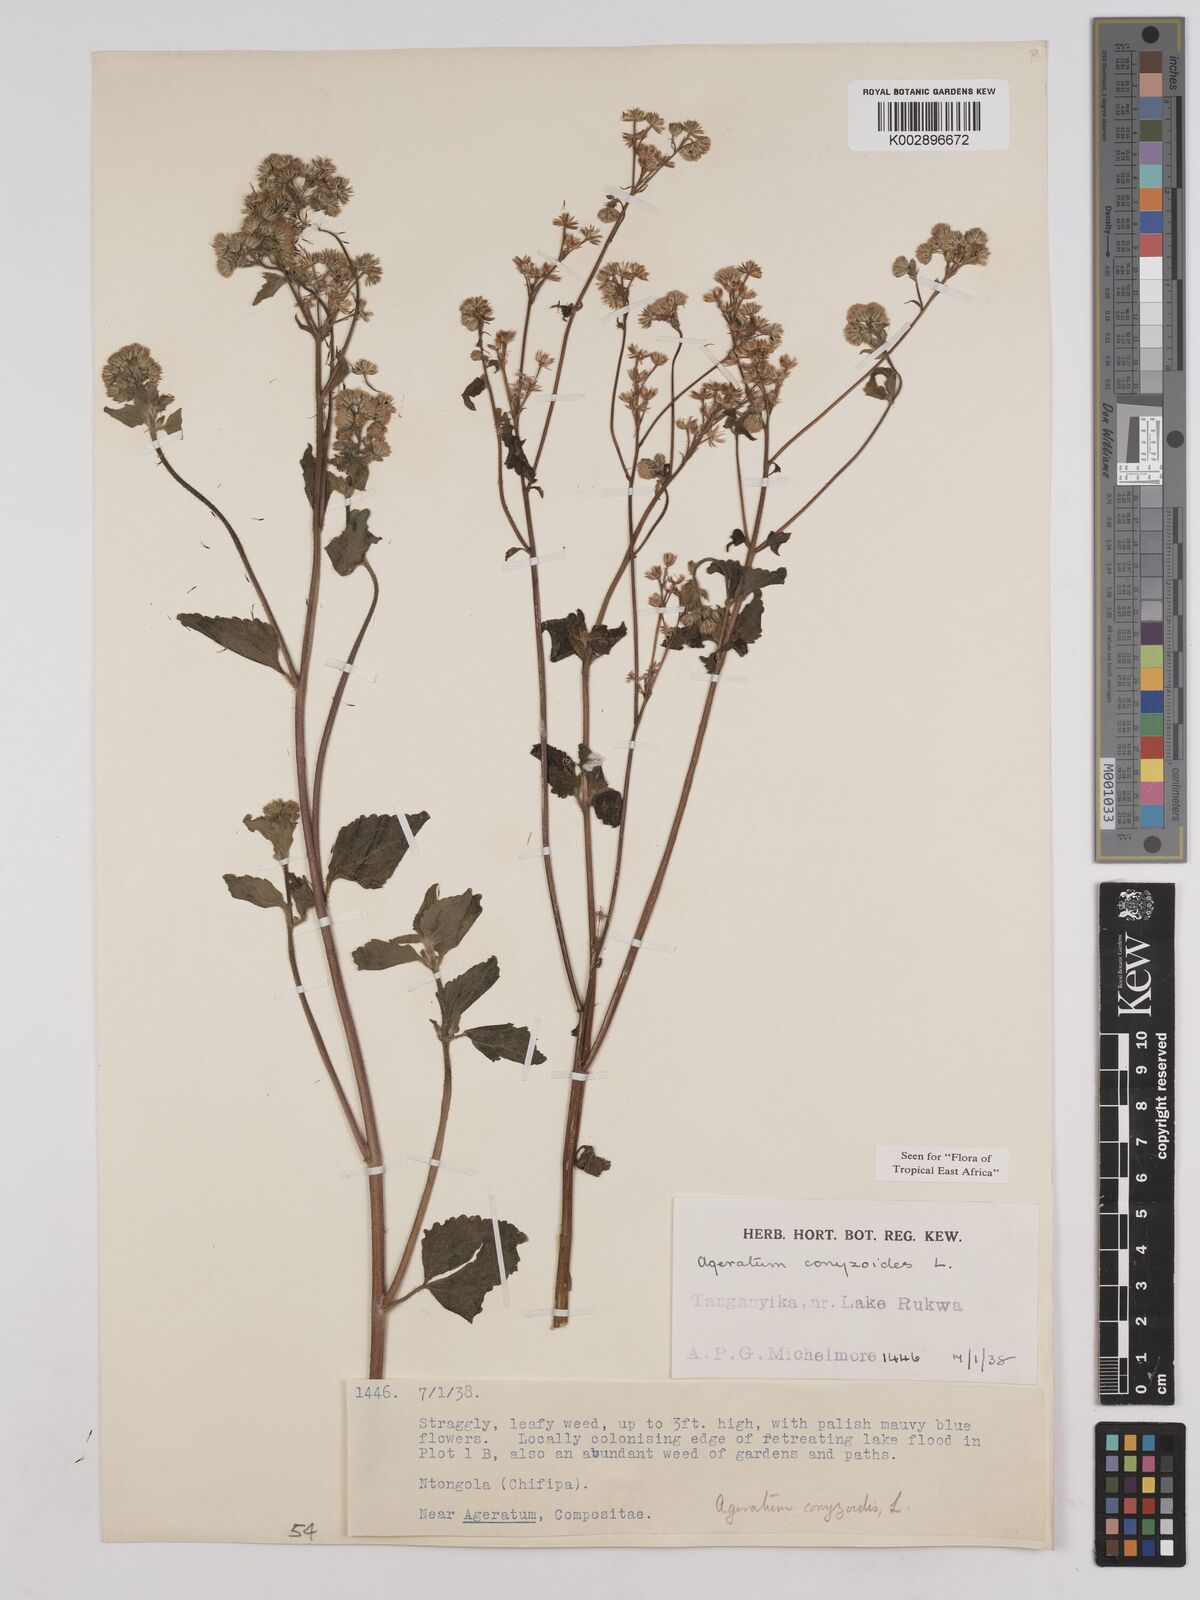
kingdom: Plantae
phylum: Tracheophyta
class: Magnoliopsida
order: Asterales
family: Asteraceae
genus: Ageratum
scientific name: Ageratum conyzoides
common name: Tropical whiteweed
